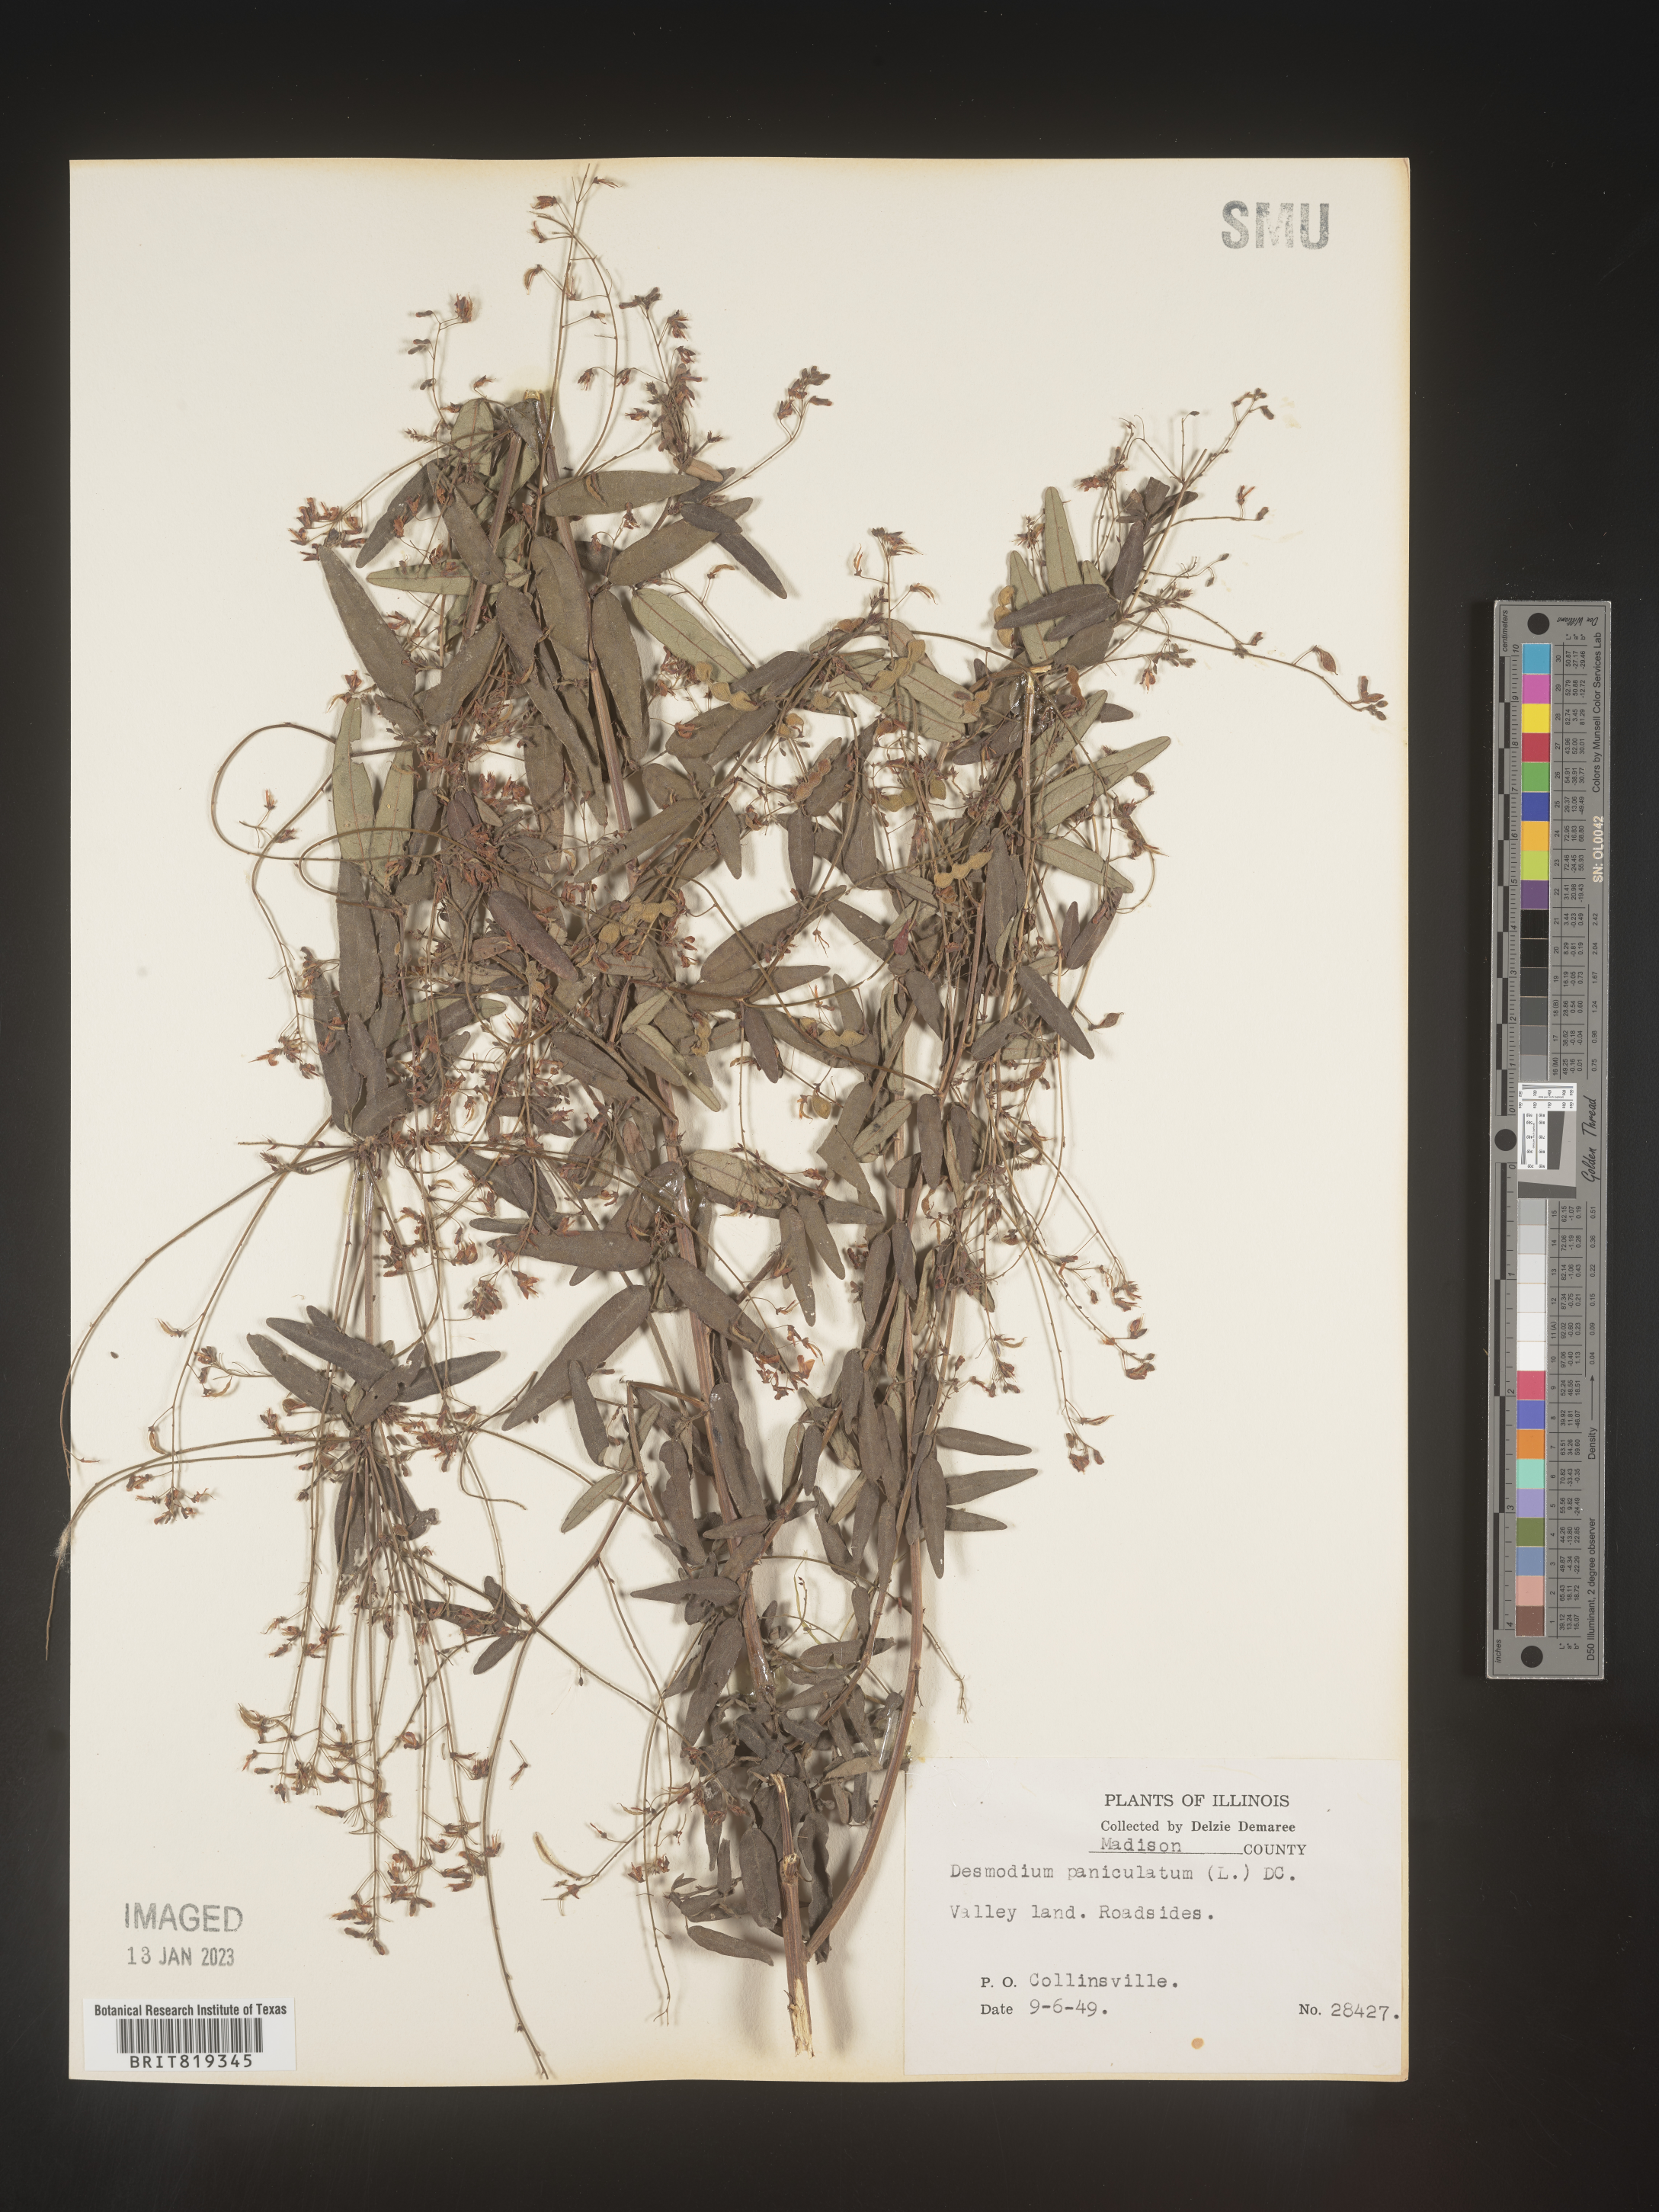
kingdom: Plantae
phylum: Tracheophyta
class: Magnoliopsida
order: Fabales
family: Fabaceae
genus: Desmodium
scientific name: Desmodium paniculatum
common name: Panicled tick-clover
